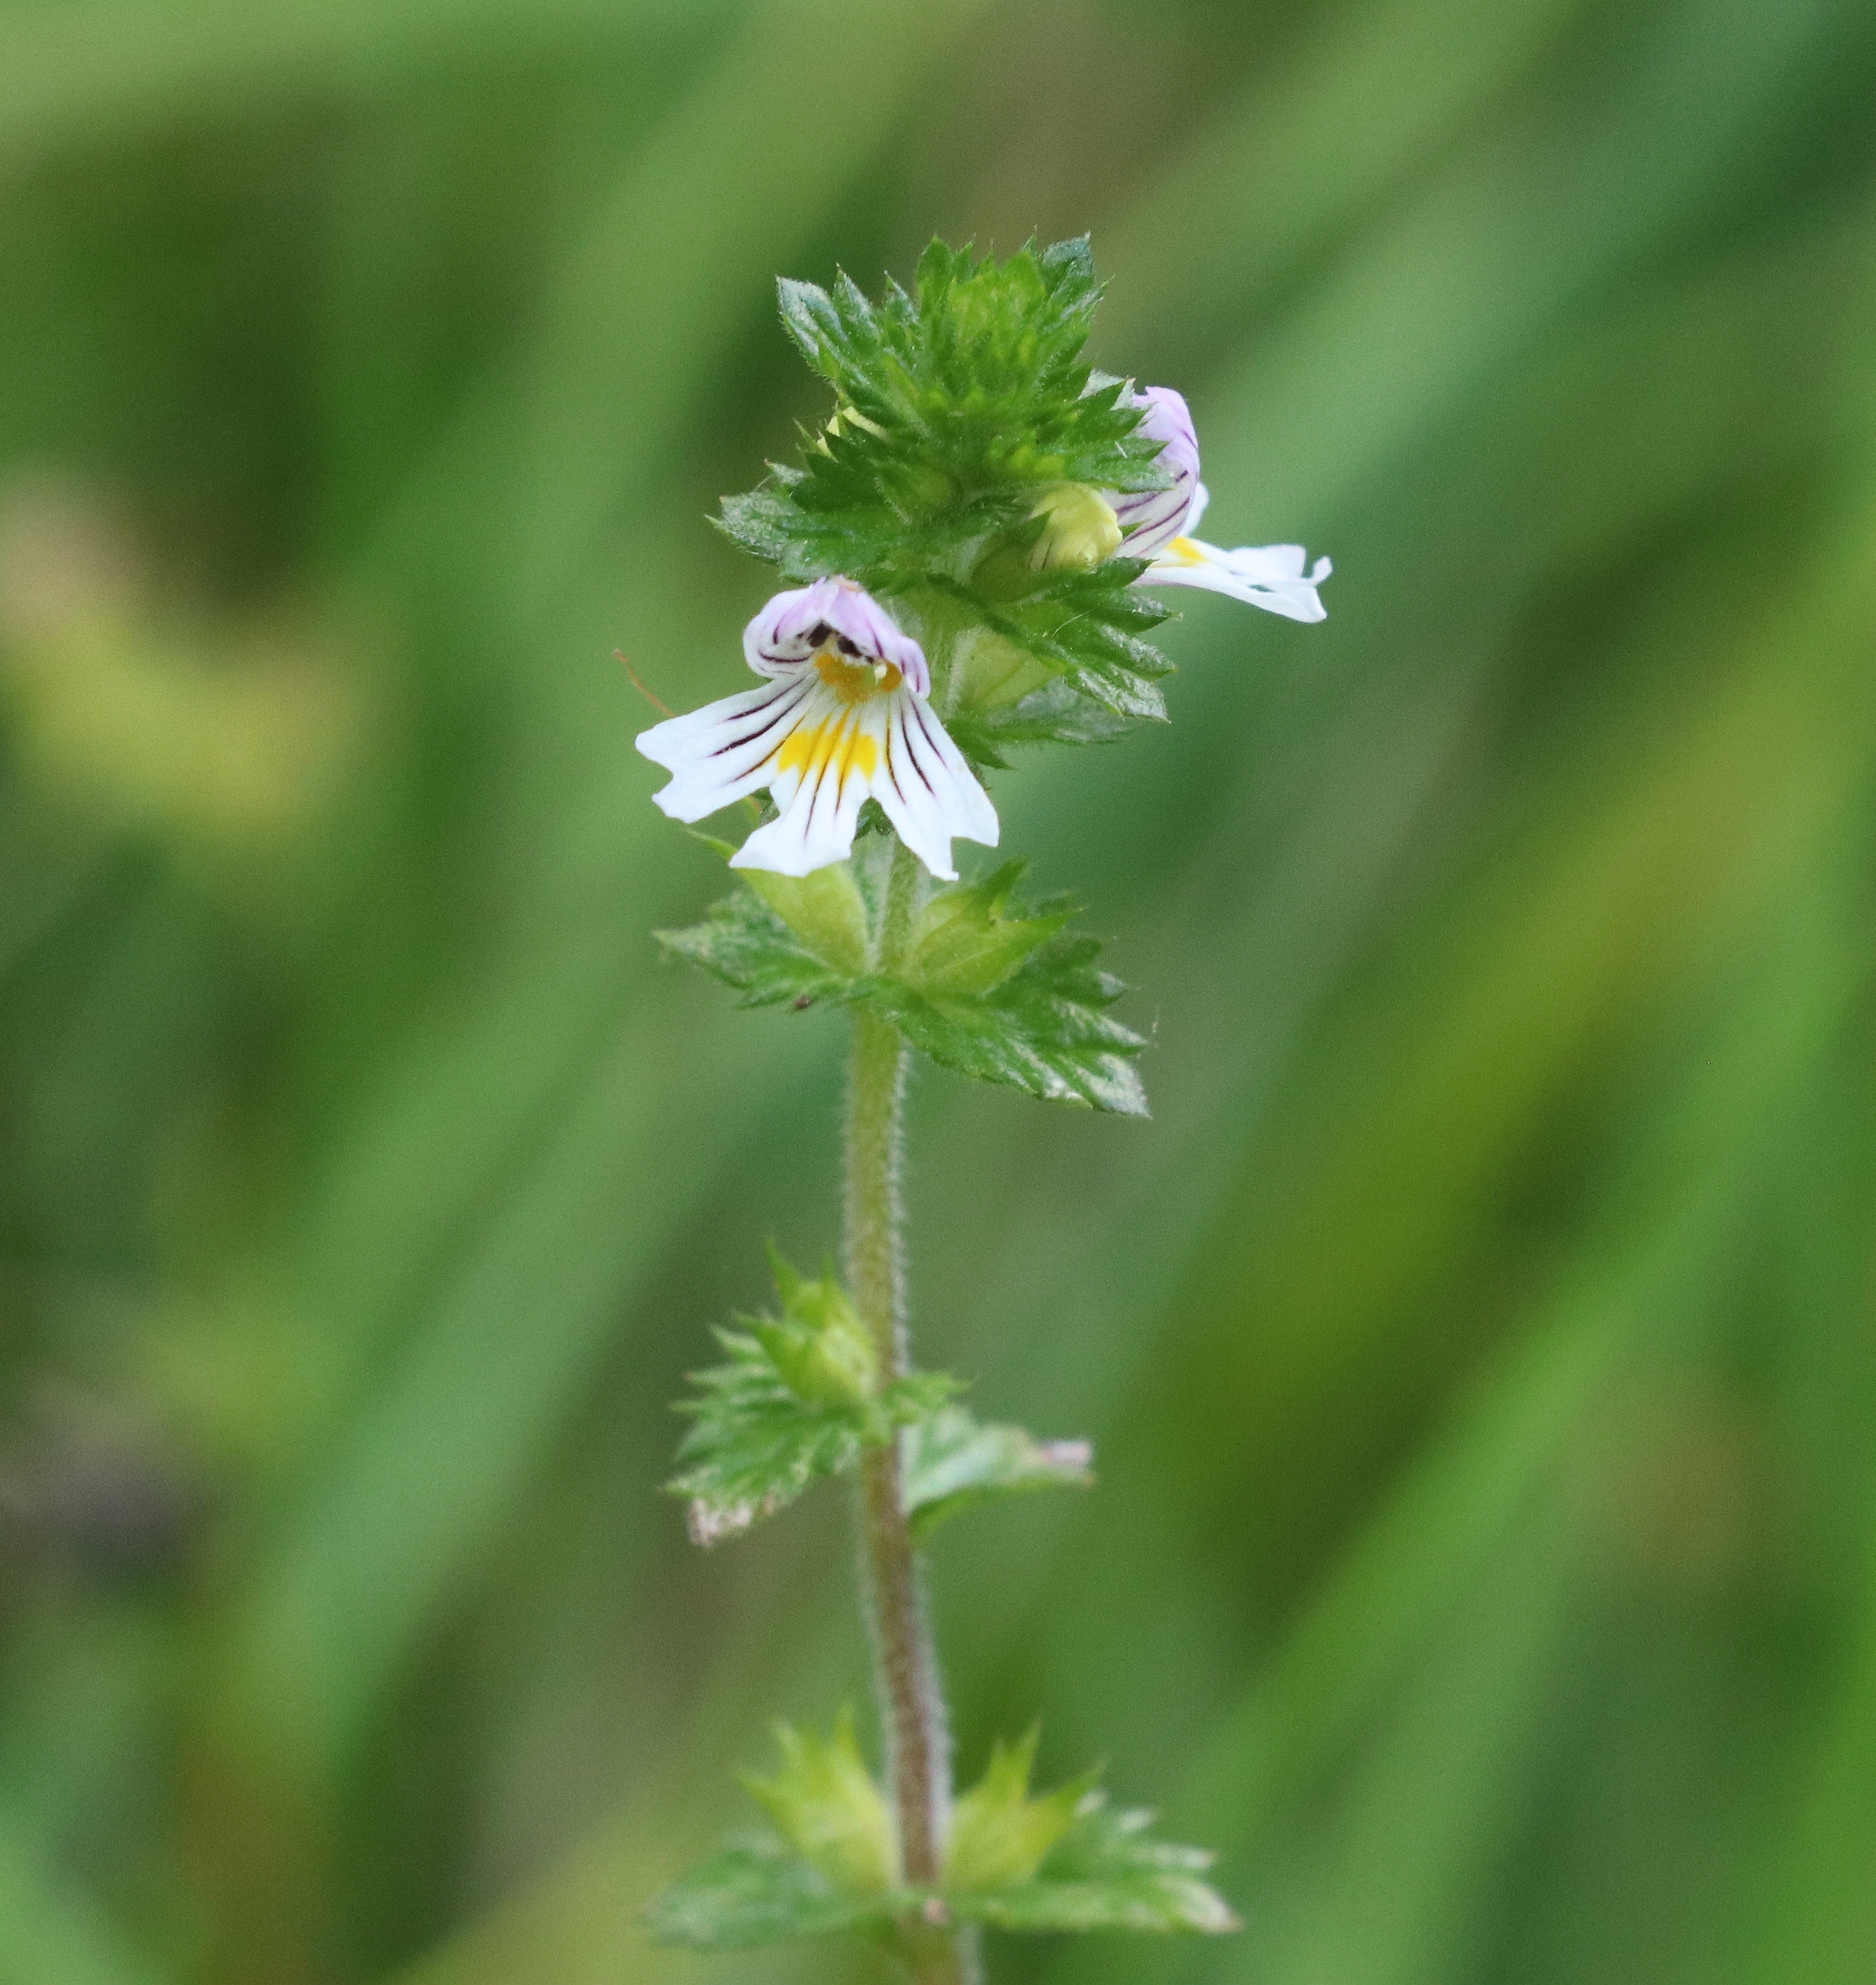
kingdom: Plantae
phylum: Tracheophyta
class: Magnoliopsida
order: Lamiales
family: Orobanchaceae
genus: Euphrasia
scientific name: Euphrasia
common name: Øjentrøstslægten
